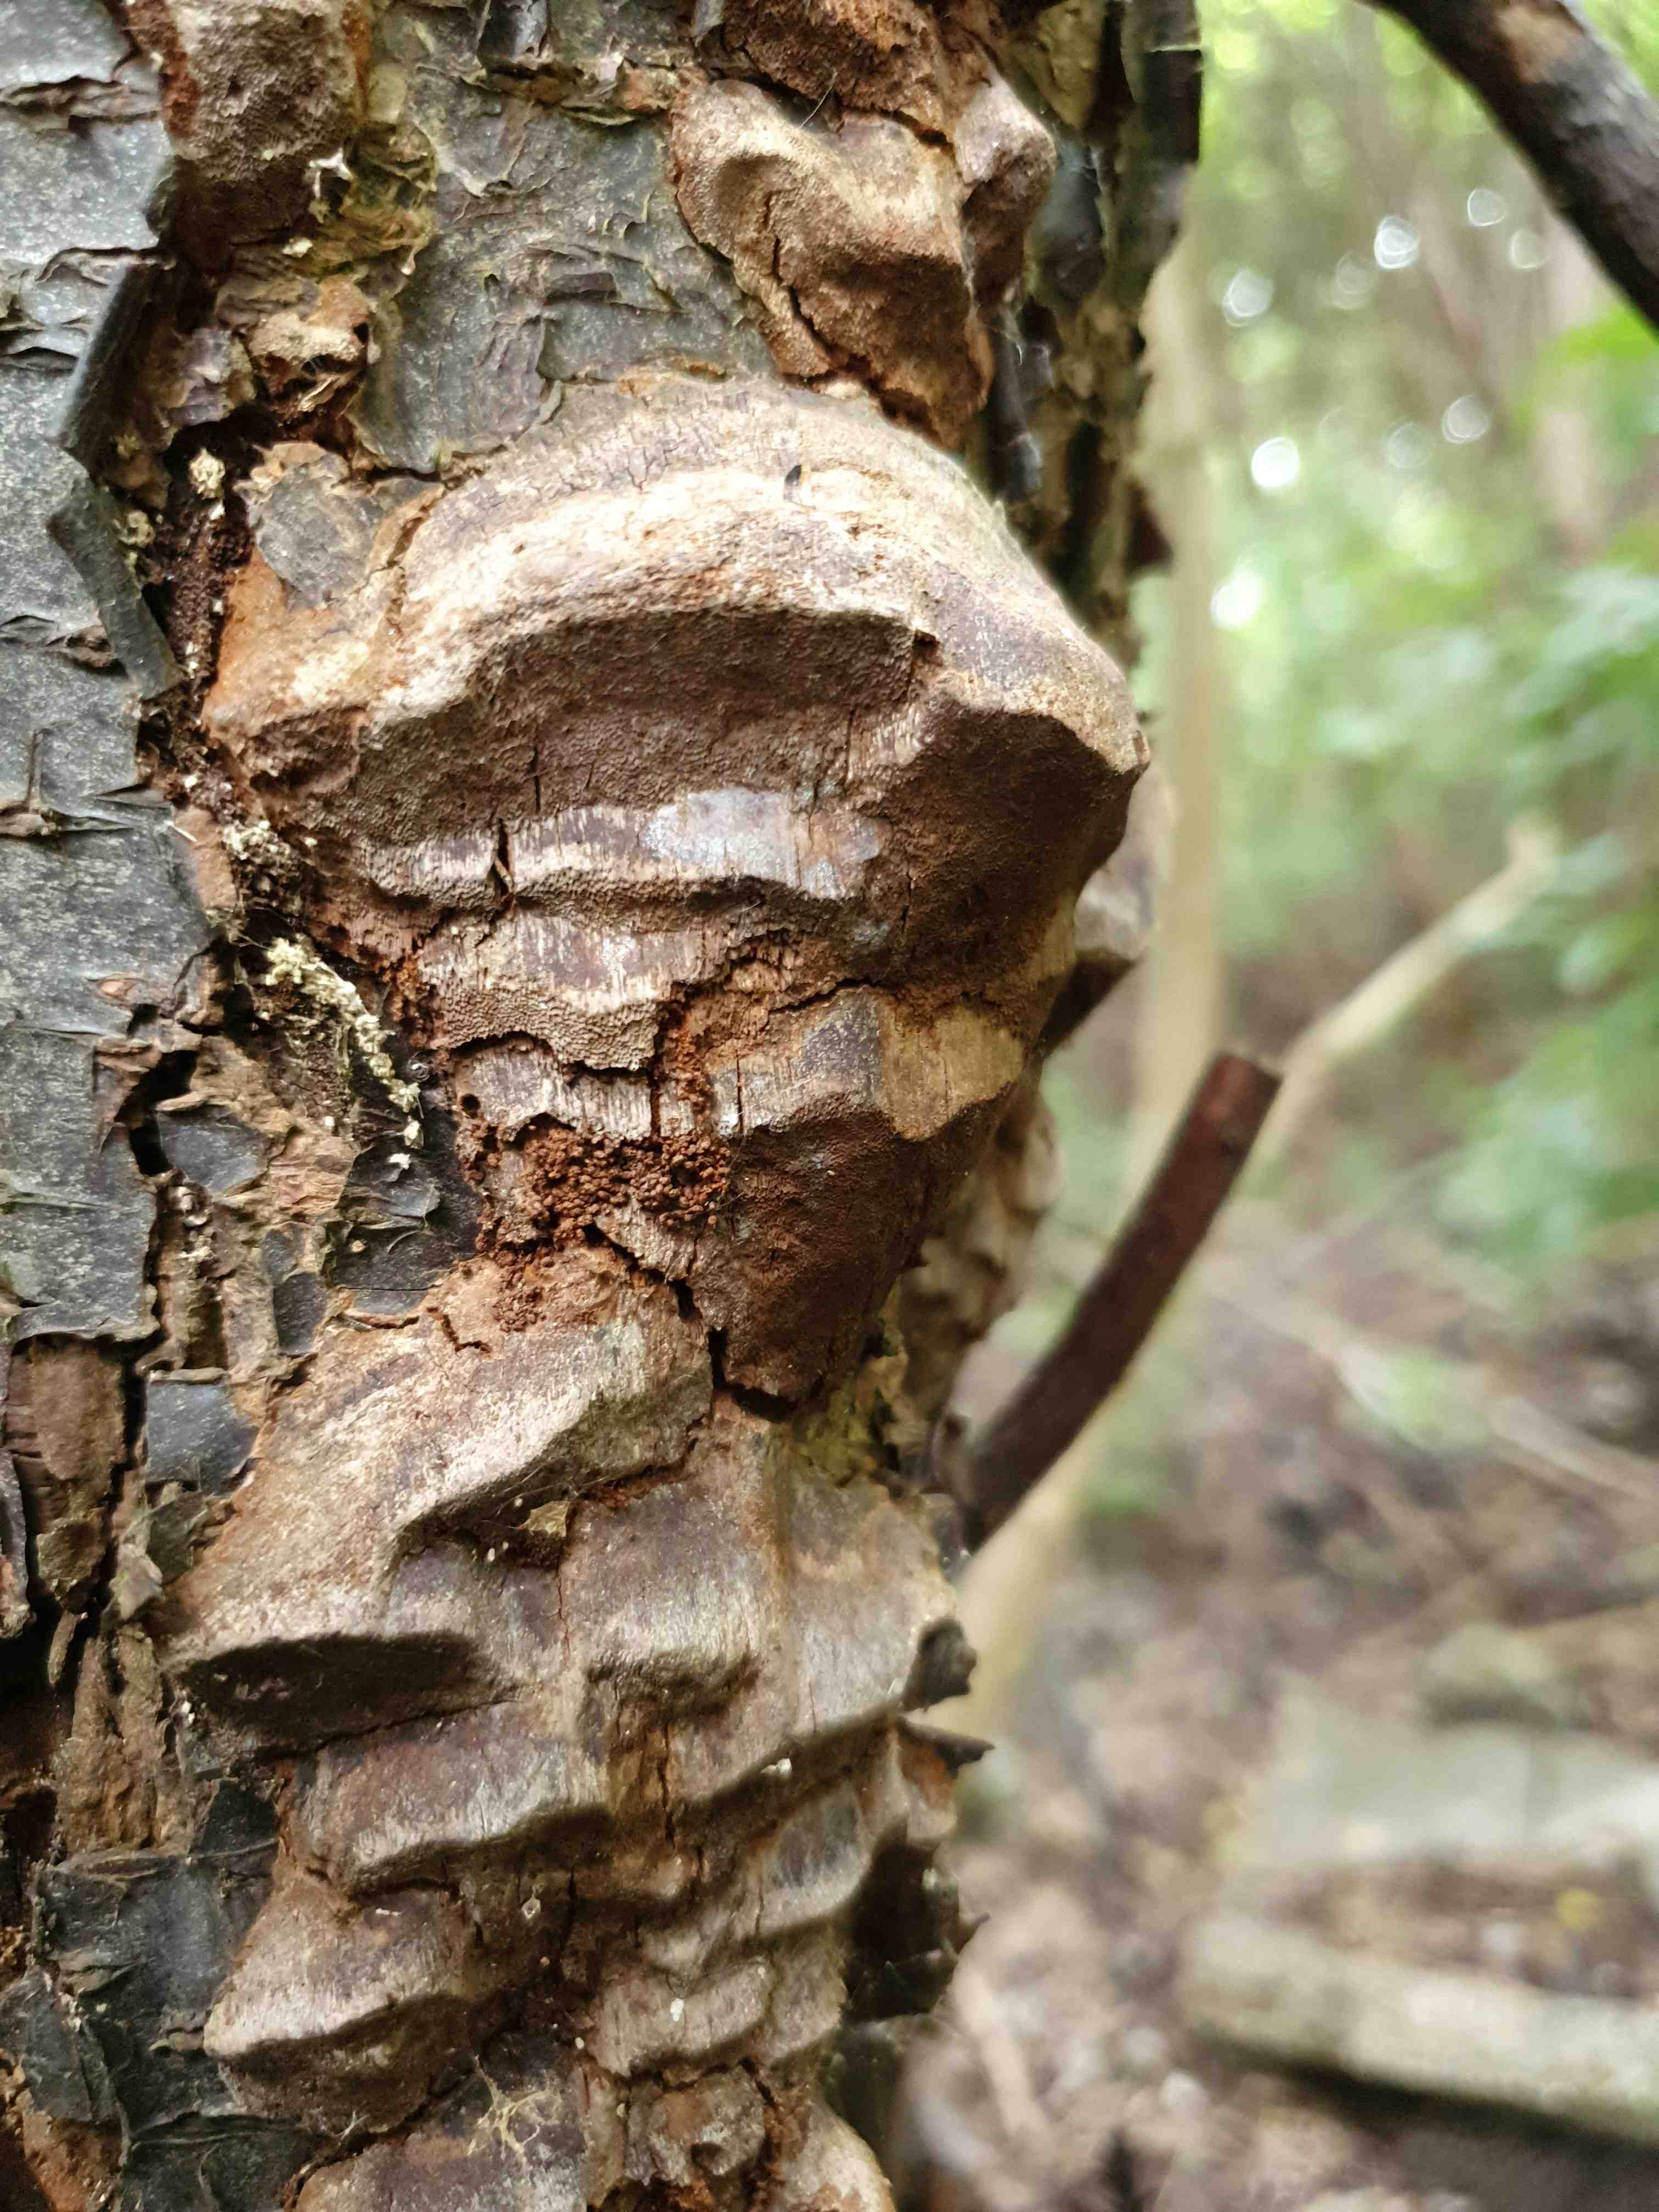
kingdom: Fungi
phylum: Basidiomycota
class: Agaricomycetes
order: Hymenochaetales
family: Hymenochaetaceae
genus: Phellinus
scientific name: Phellinus pomaceus
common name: blomme-ildporesvamp
